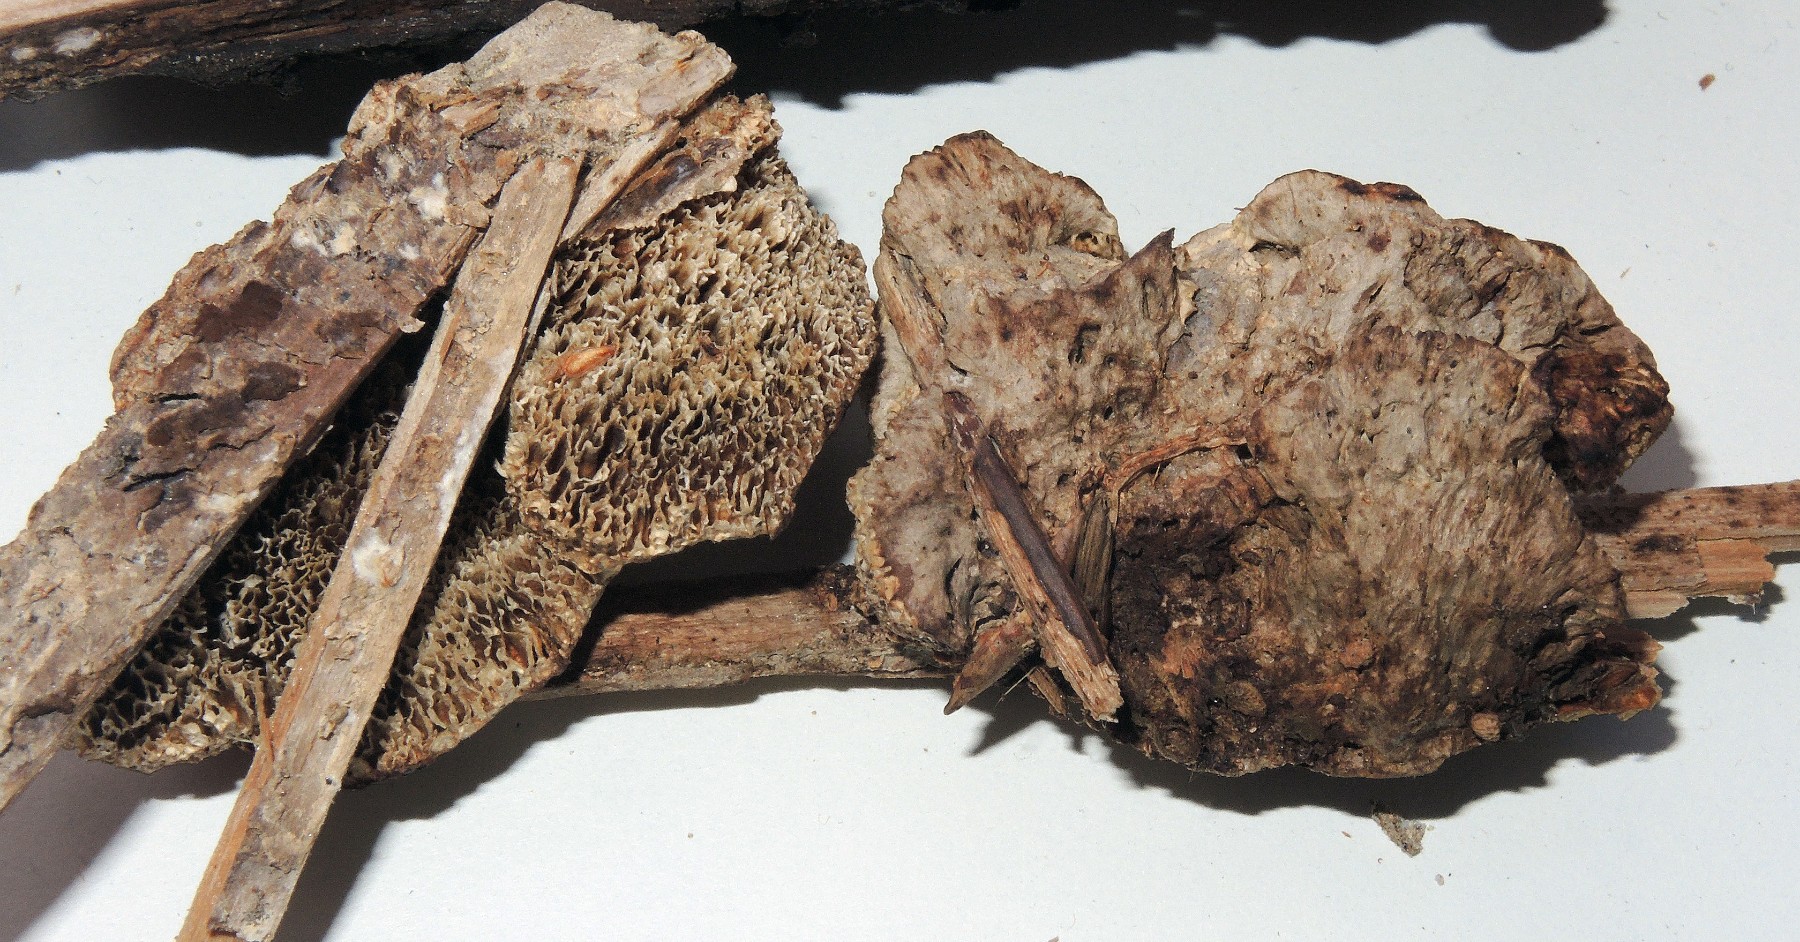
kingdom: Fungi
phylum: Basidiomycota
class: Agaricomycetes
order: Polyporales
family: Fomitopsidaceae
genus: Antrodia
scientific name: Antrodia sinuosa
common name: tømmer-sejporesvamp
